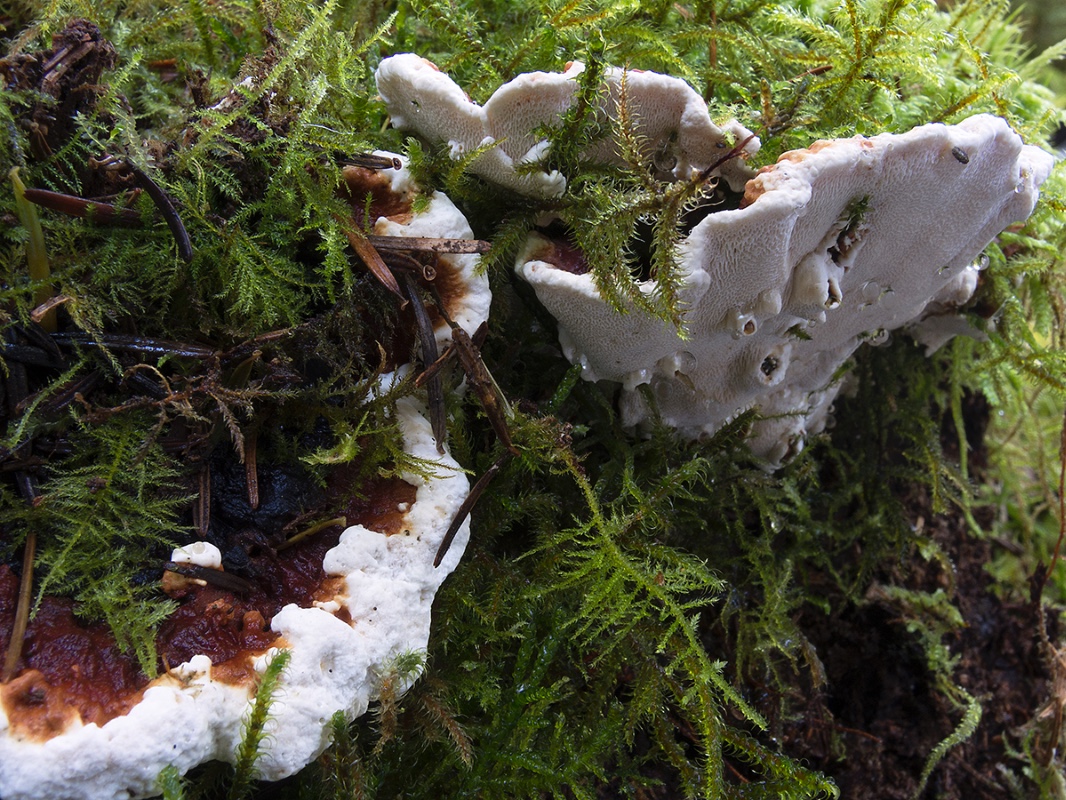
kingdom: Fungi
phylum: Basidiomycota
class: Agaricomycetes
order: Russulales
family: Bondarzewiaceae
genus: Heterobasidion
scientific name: Heterobasidion annosum
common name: almindelig rodfordærver
